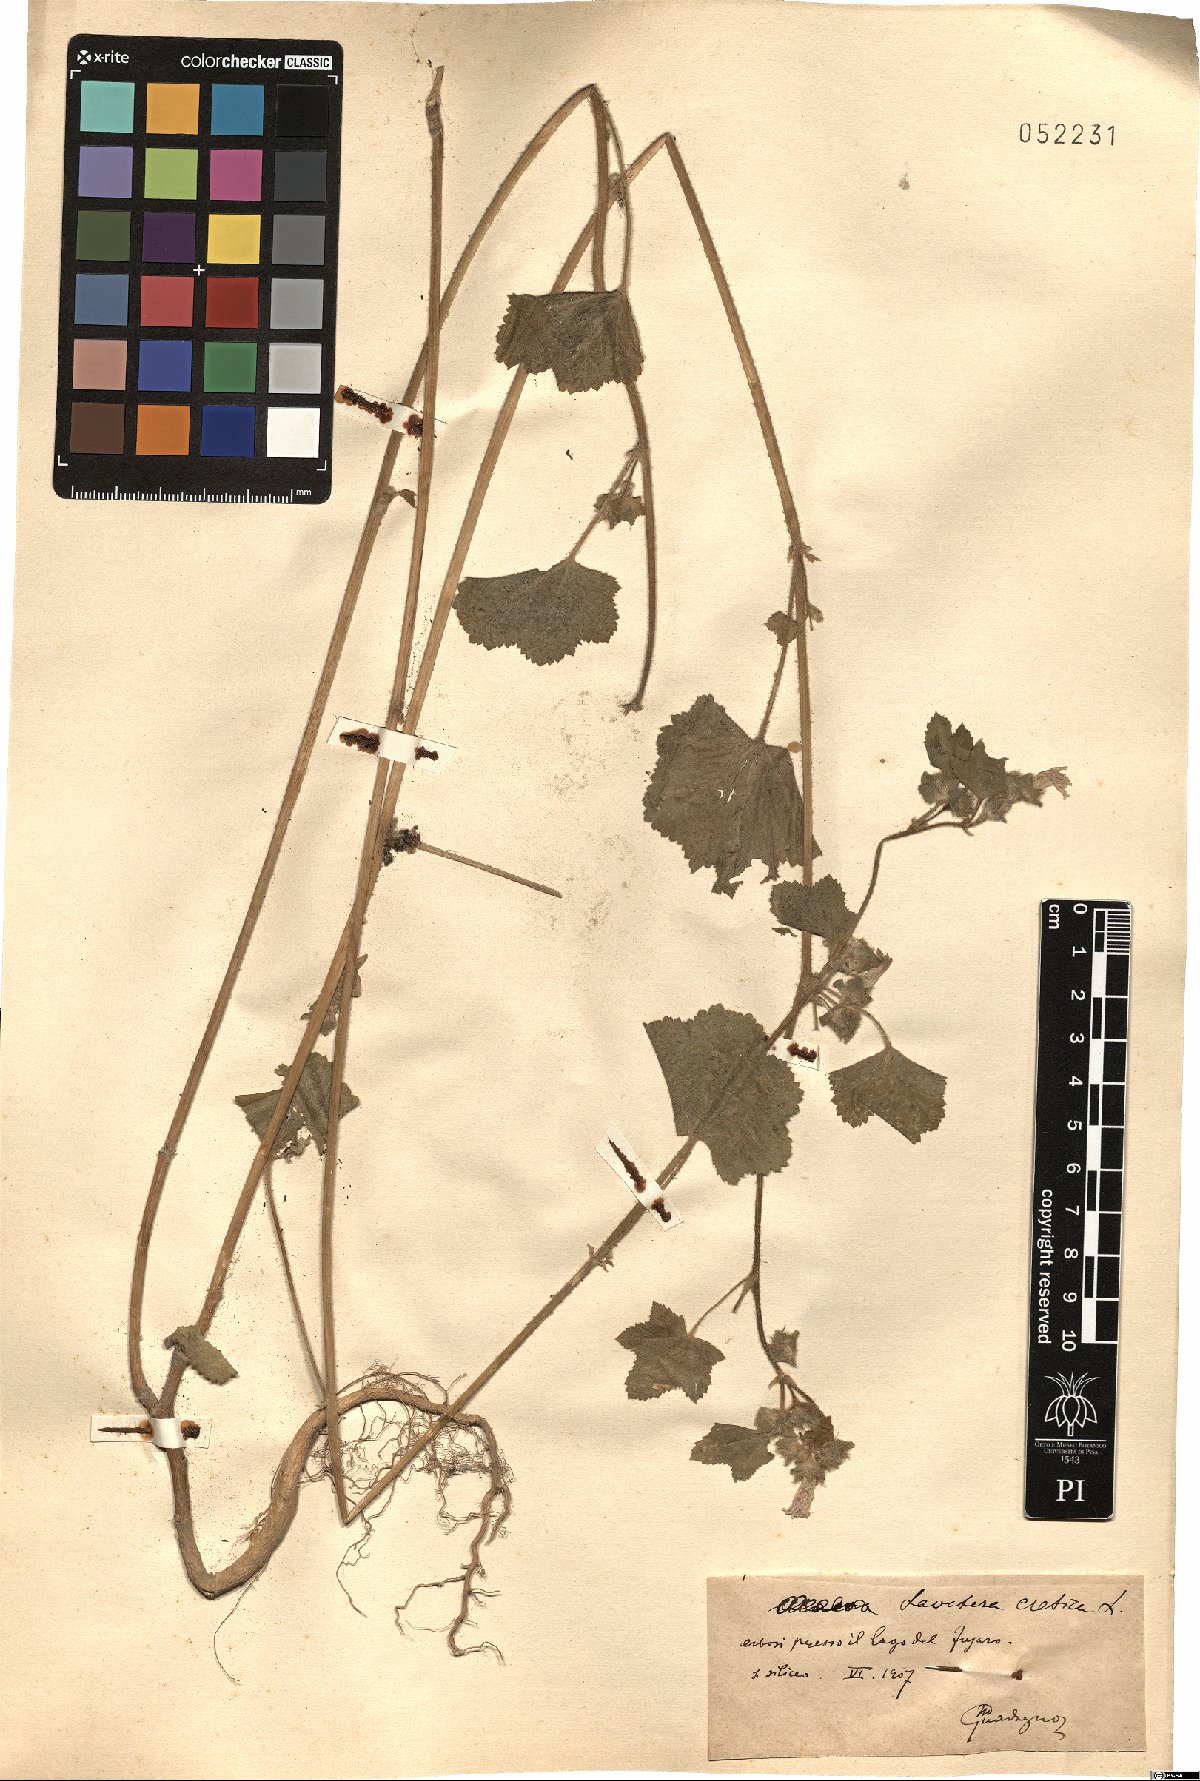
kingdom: Plantae
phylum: Tracheophyta
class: Magnoliopsida
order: Malvales
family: Malvaceae
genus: Malva
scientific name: Malva multiflora
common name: Cheeseweed
